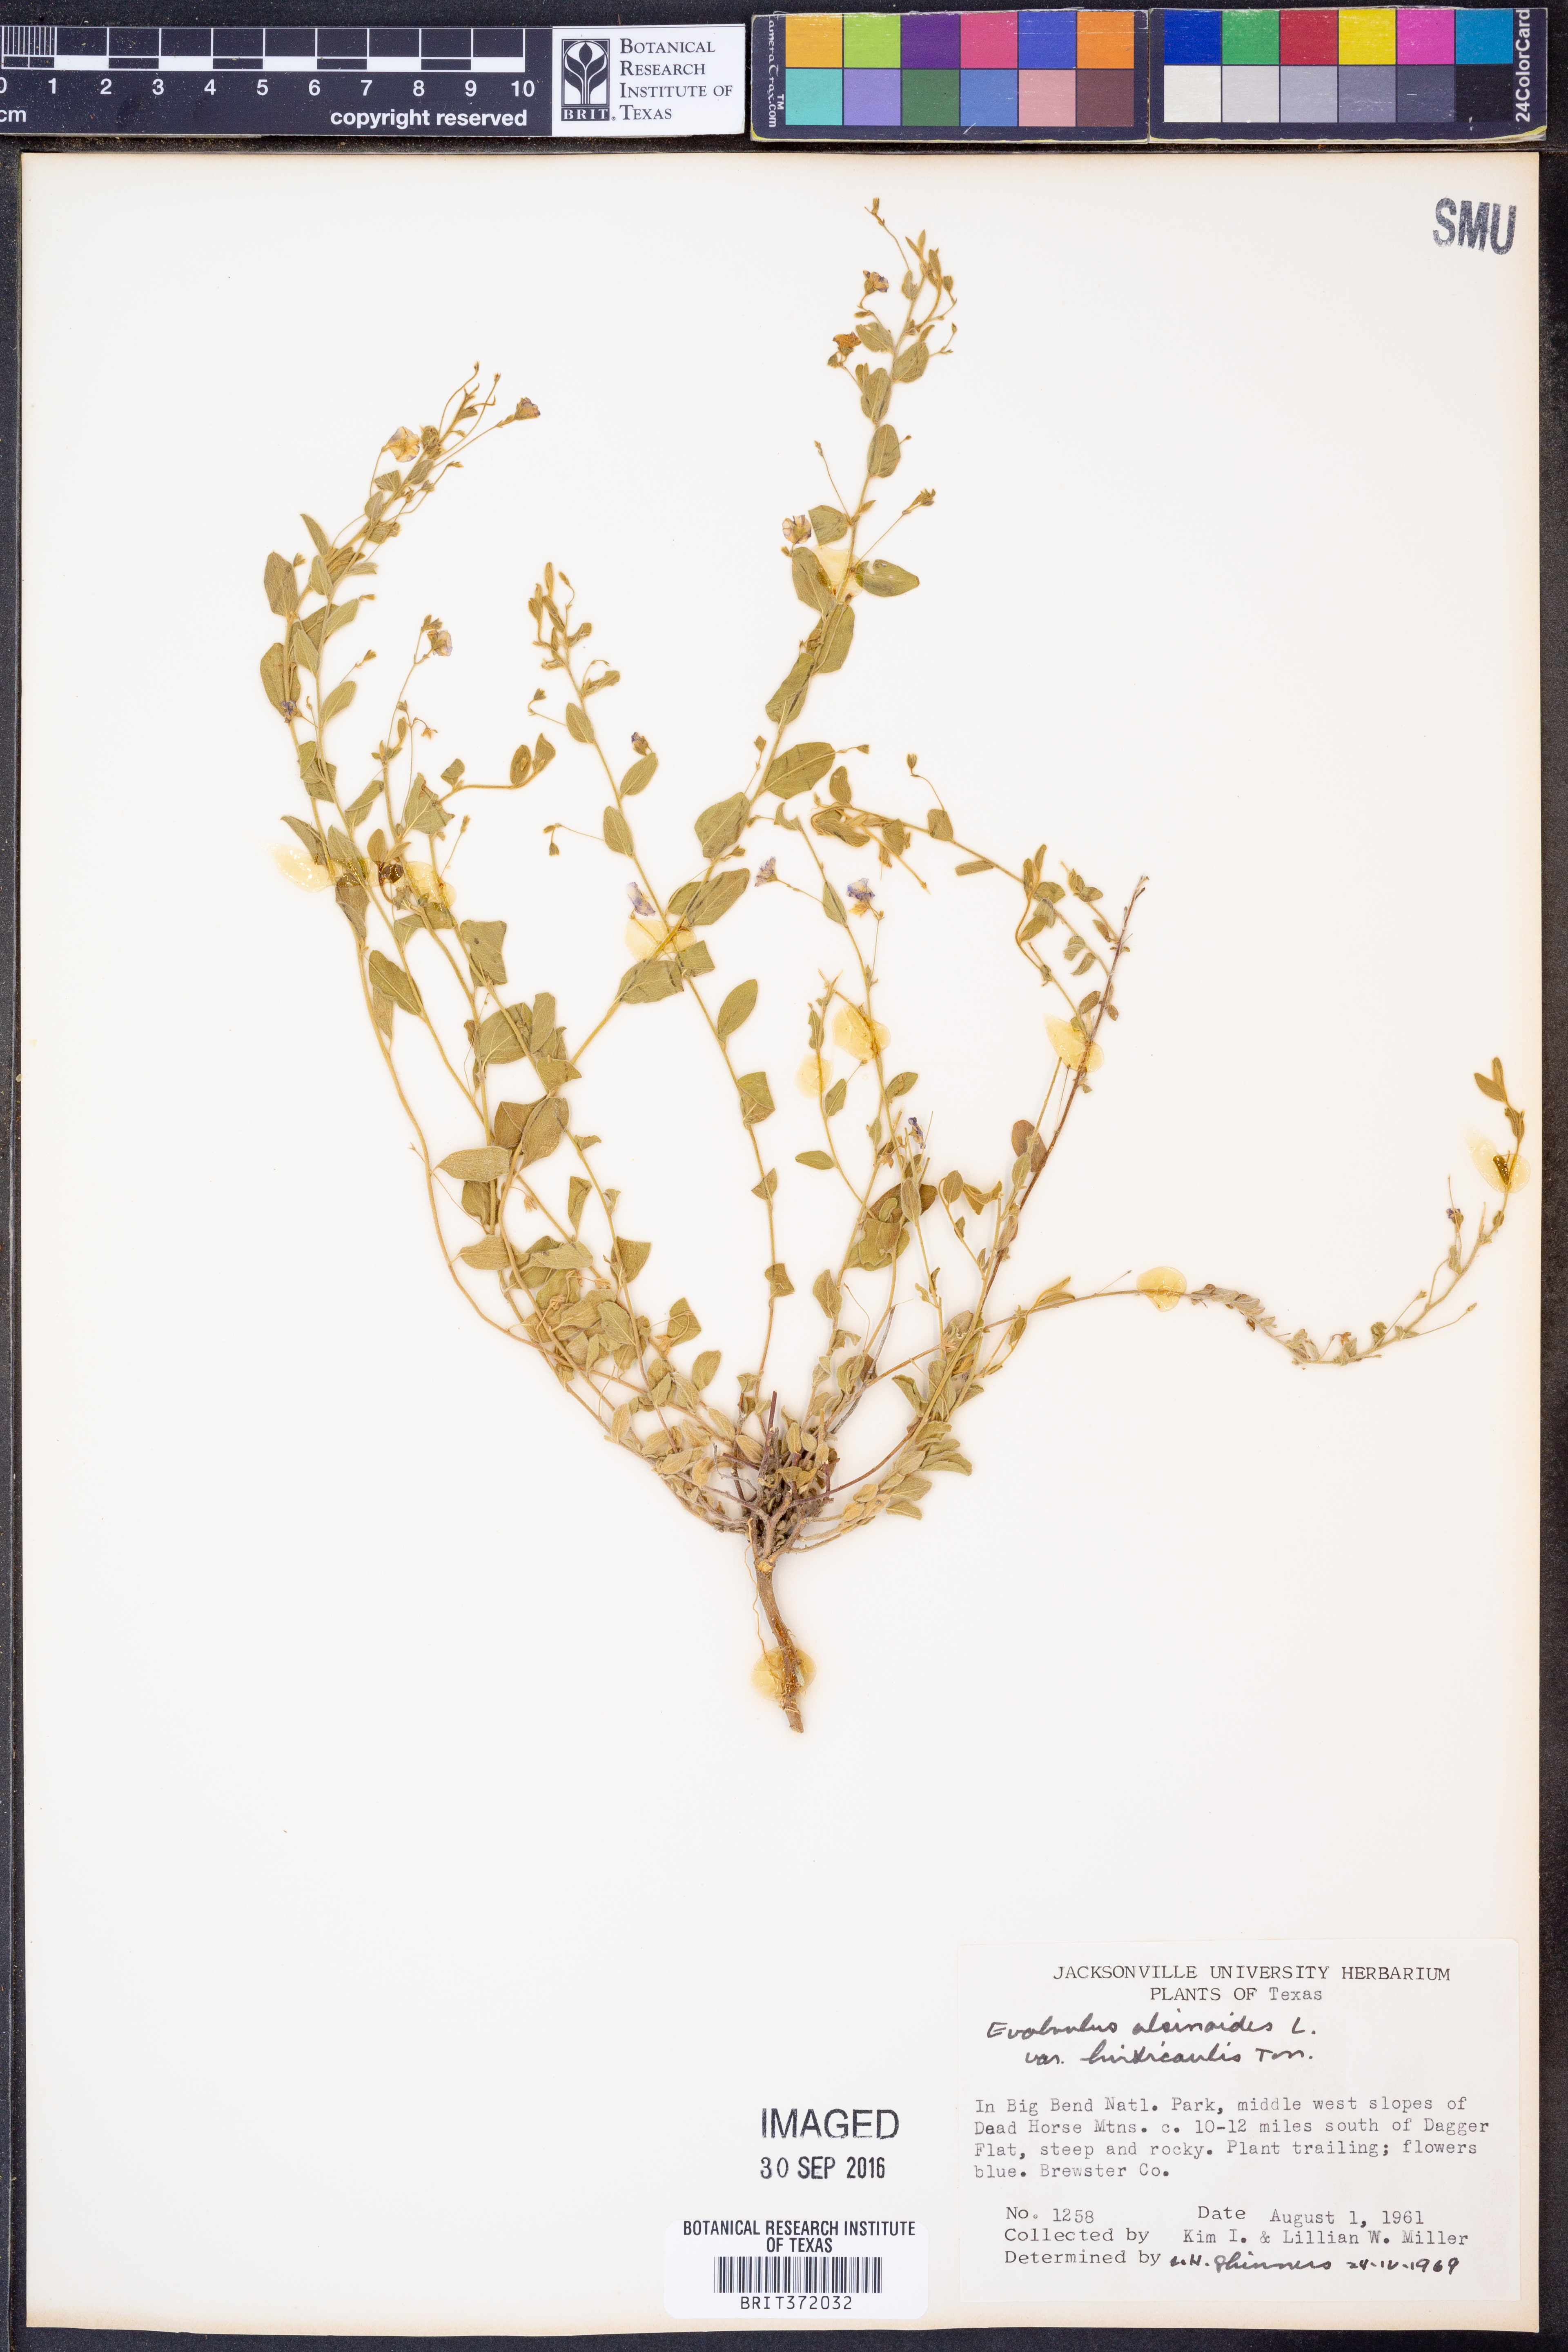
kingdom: Plantae
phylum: Tracheophyta
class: Magnoliopsida
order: Solanales
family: Convolvulaceae
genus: Evolvulus
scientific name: Evolvulus alsinoides
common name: Slender dwarf morning-glory
